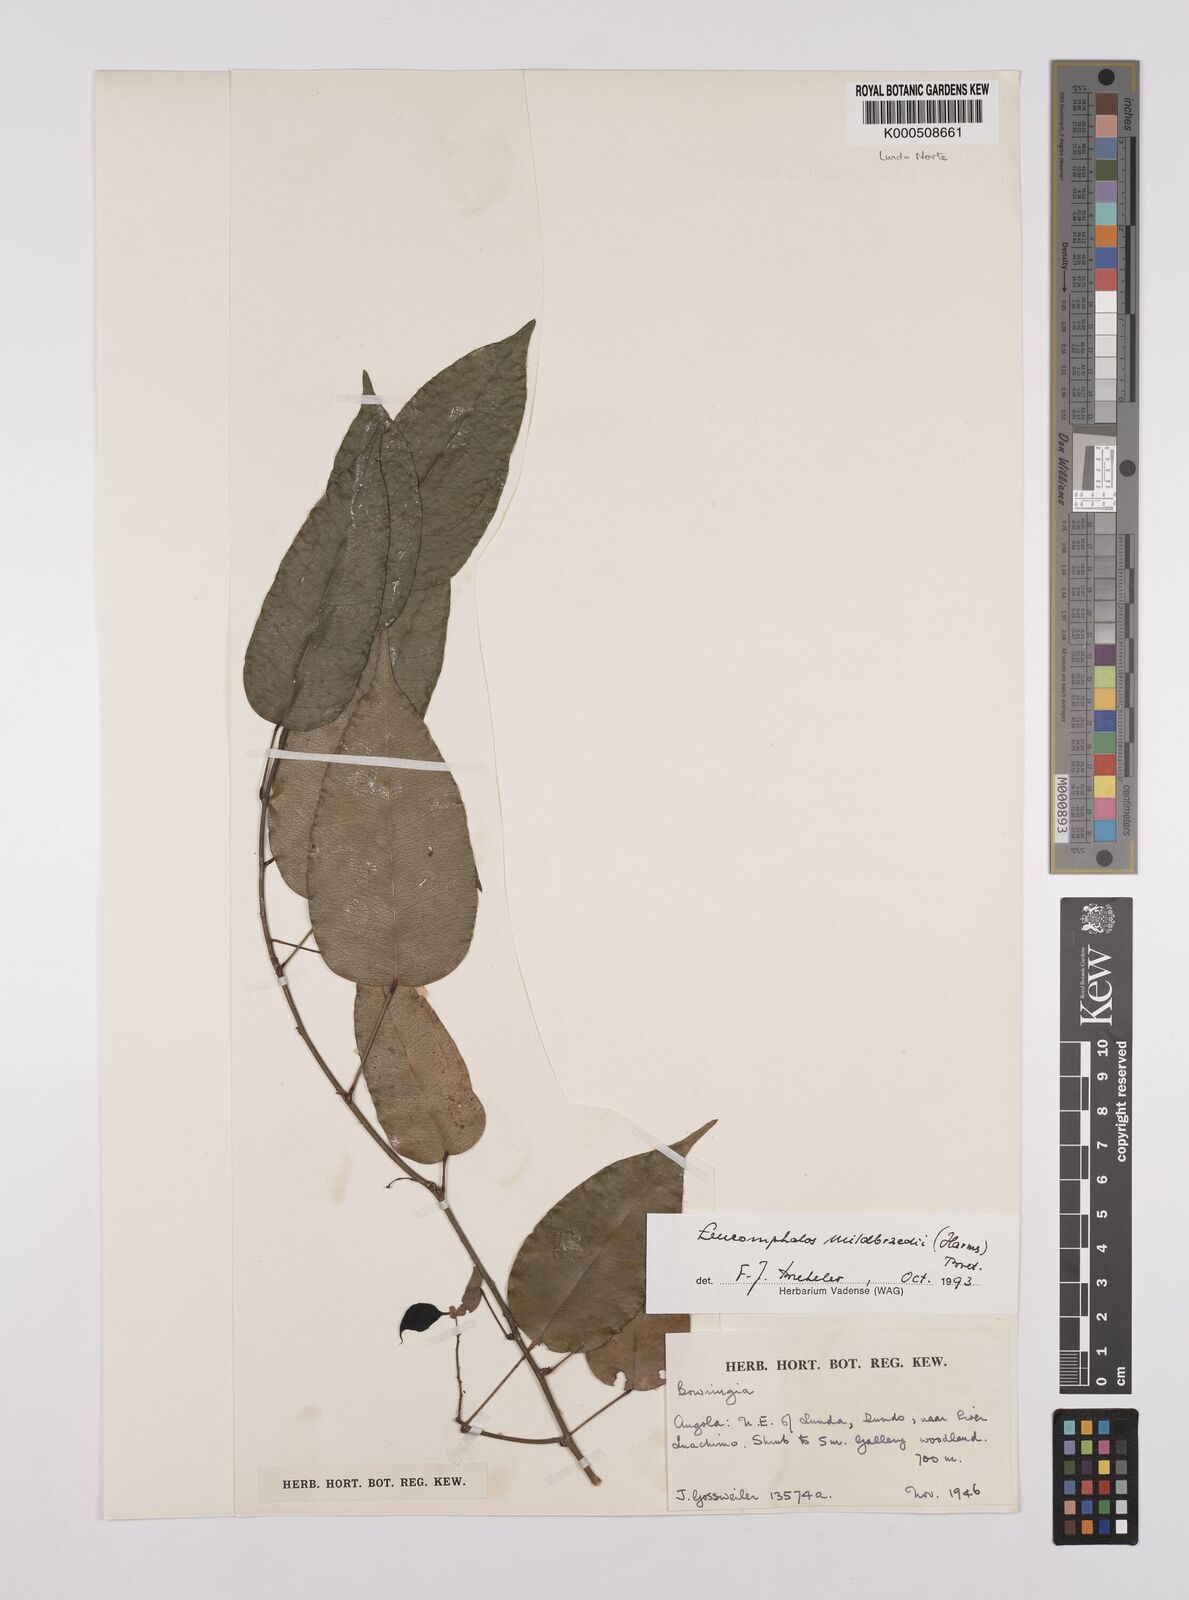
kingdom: Plantae
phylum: Tracheophyta
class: Magnoliopsida
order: Fabales
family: Fabaceae
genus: Bowringia
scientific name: Bowringia mildbraedii
